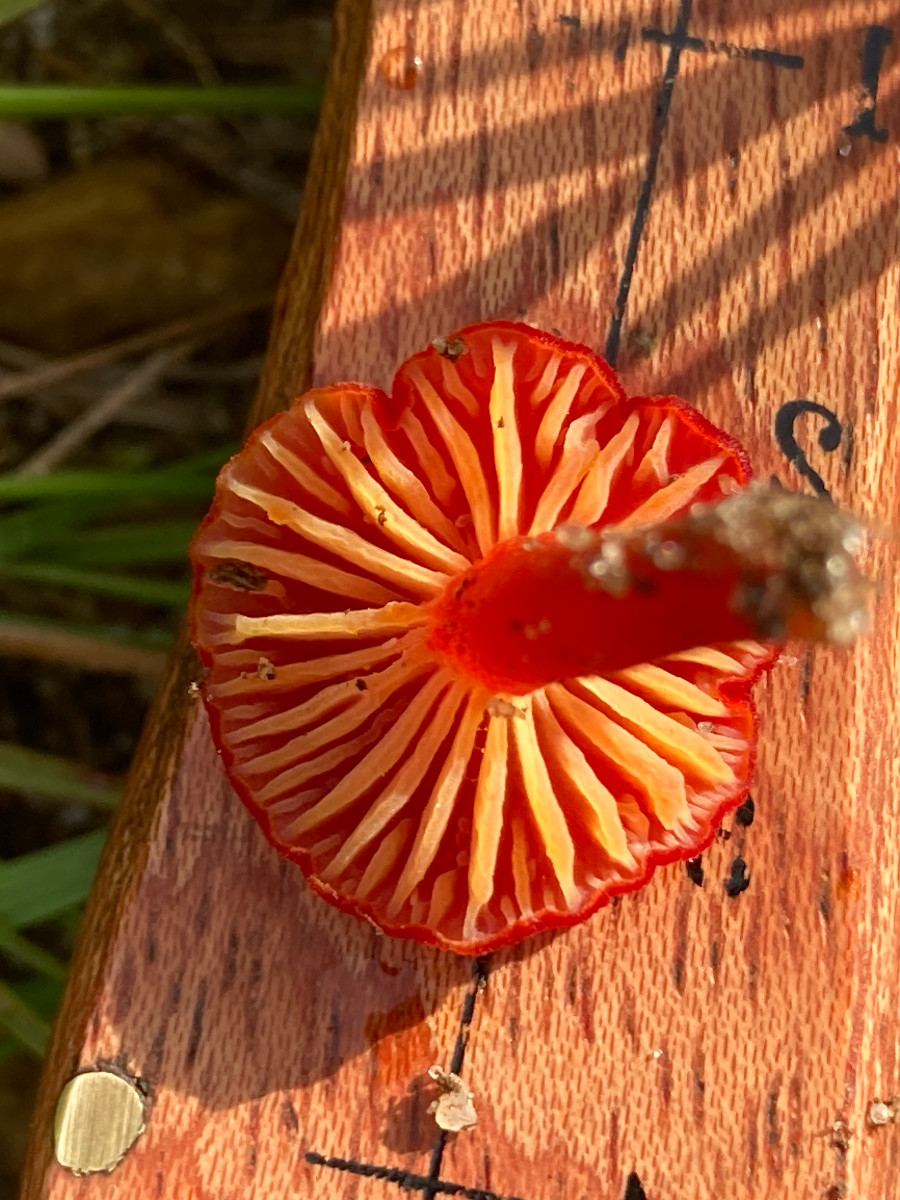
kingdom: Fungi
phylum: Basidiomycota
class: Agaricomycetes
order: Agaricales
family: Hygrophoraceae
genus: Hygrocybe
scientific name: Hygrocybe helobia
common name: hvidløgs-vokshat
